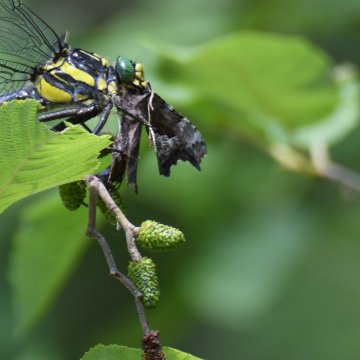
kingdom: Animalia
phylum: Arthropoda
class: Insecta
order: Lepidoptera
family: Nymphalidae
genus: Polygonia
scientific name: Polygonia
